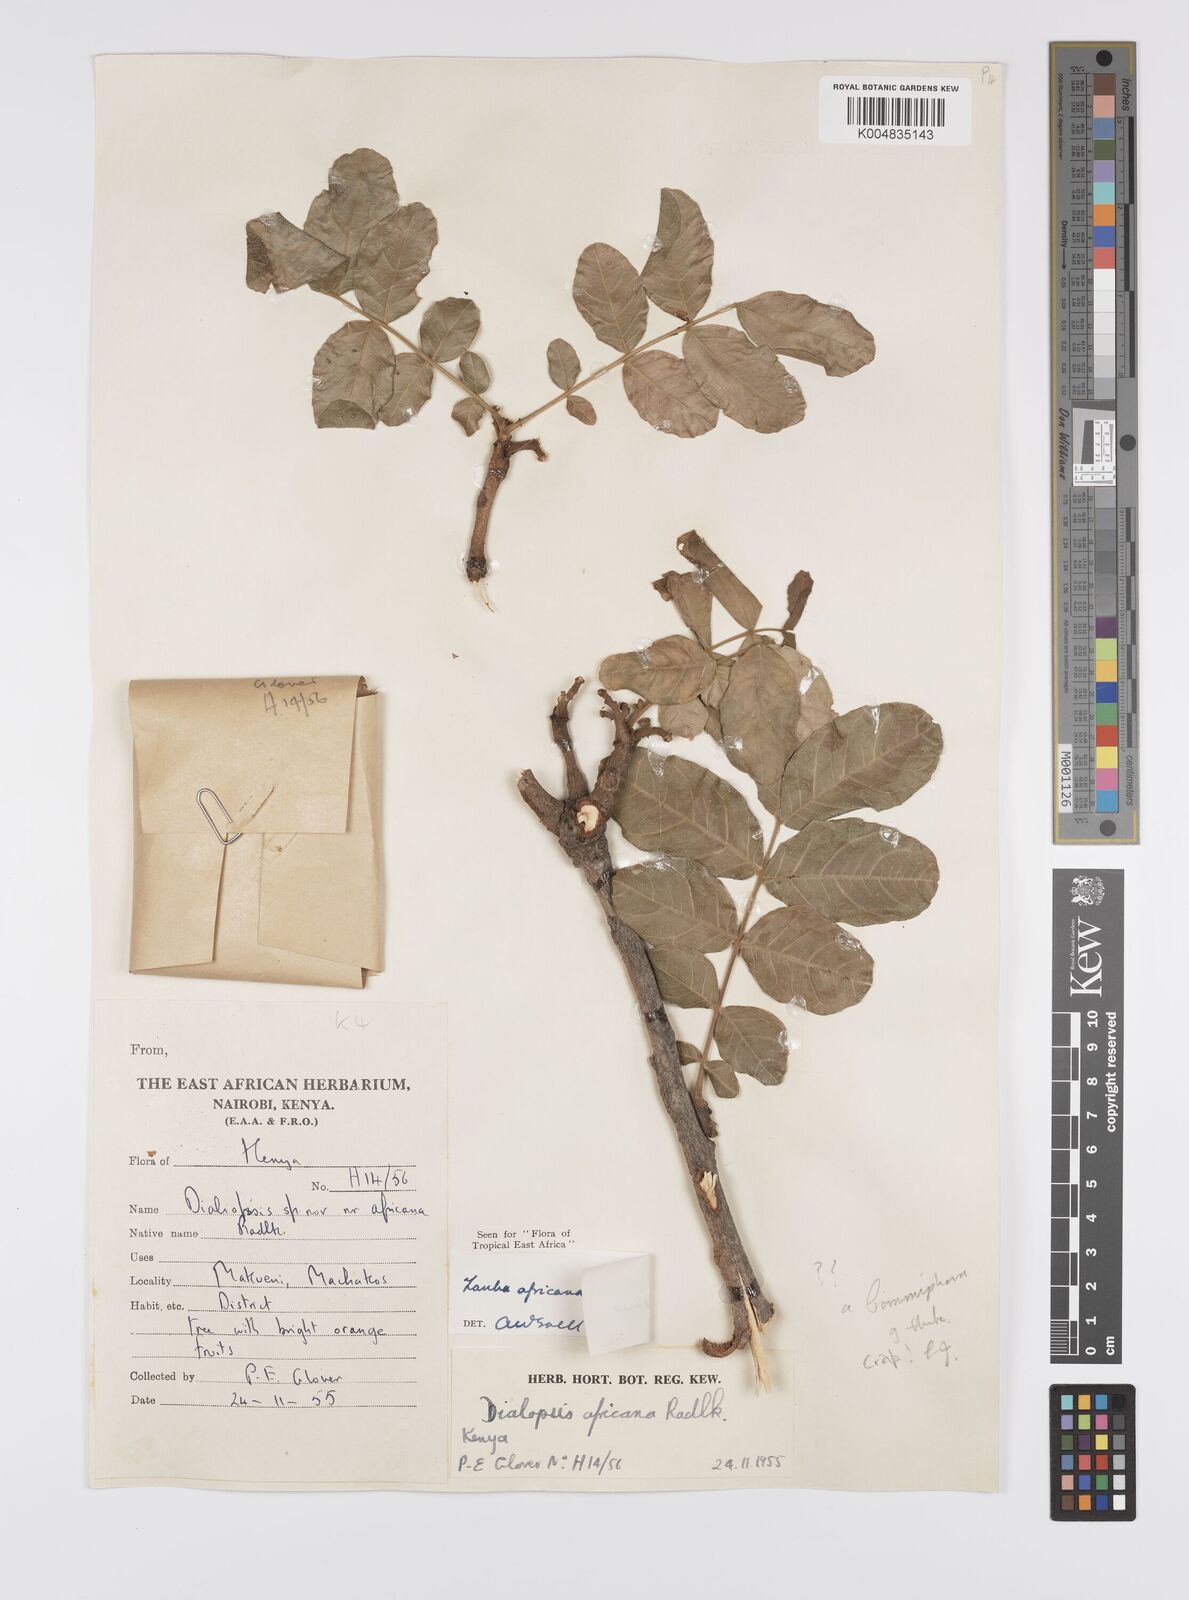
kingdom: Plantae
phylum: Tracheophyta
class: Magnoliopsida
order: Sapindales
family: Sapindaceae
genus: Zanha
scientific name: Zanha africana
